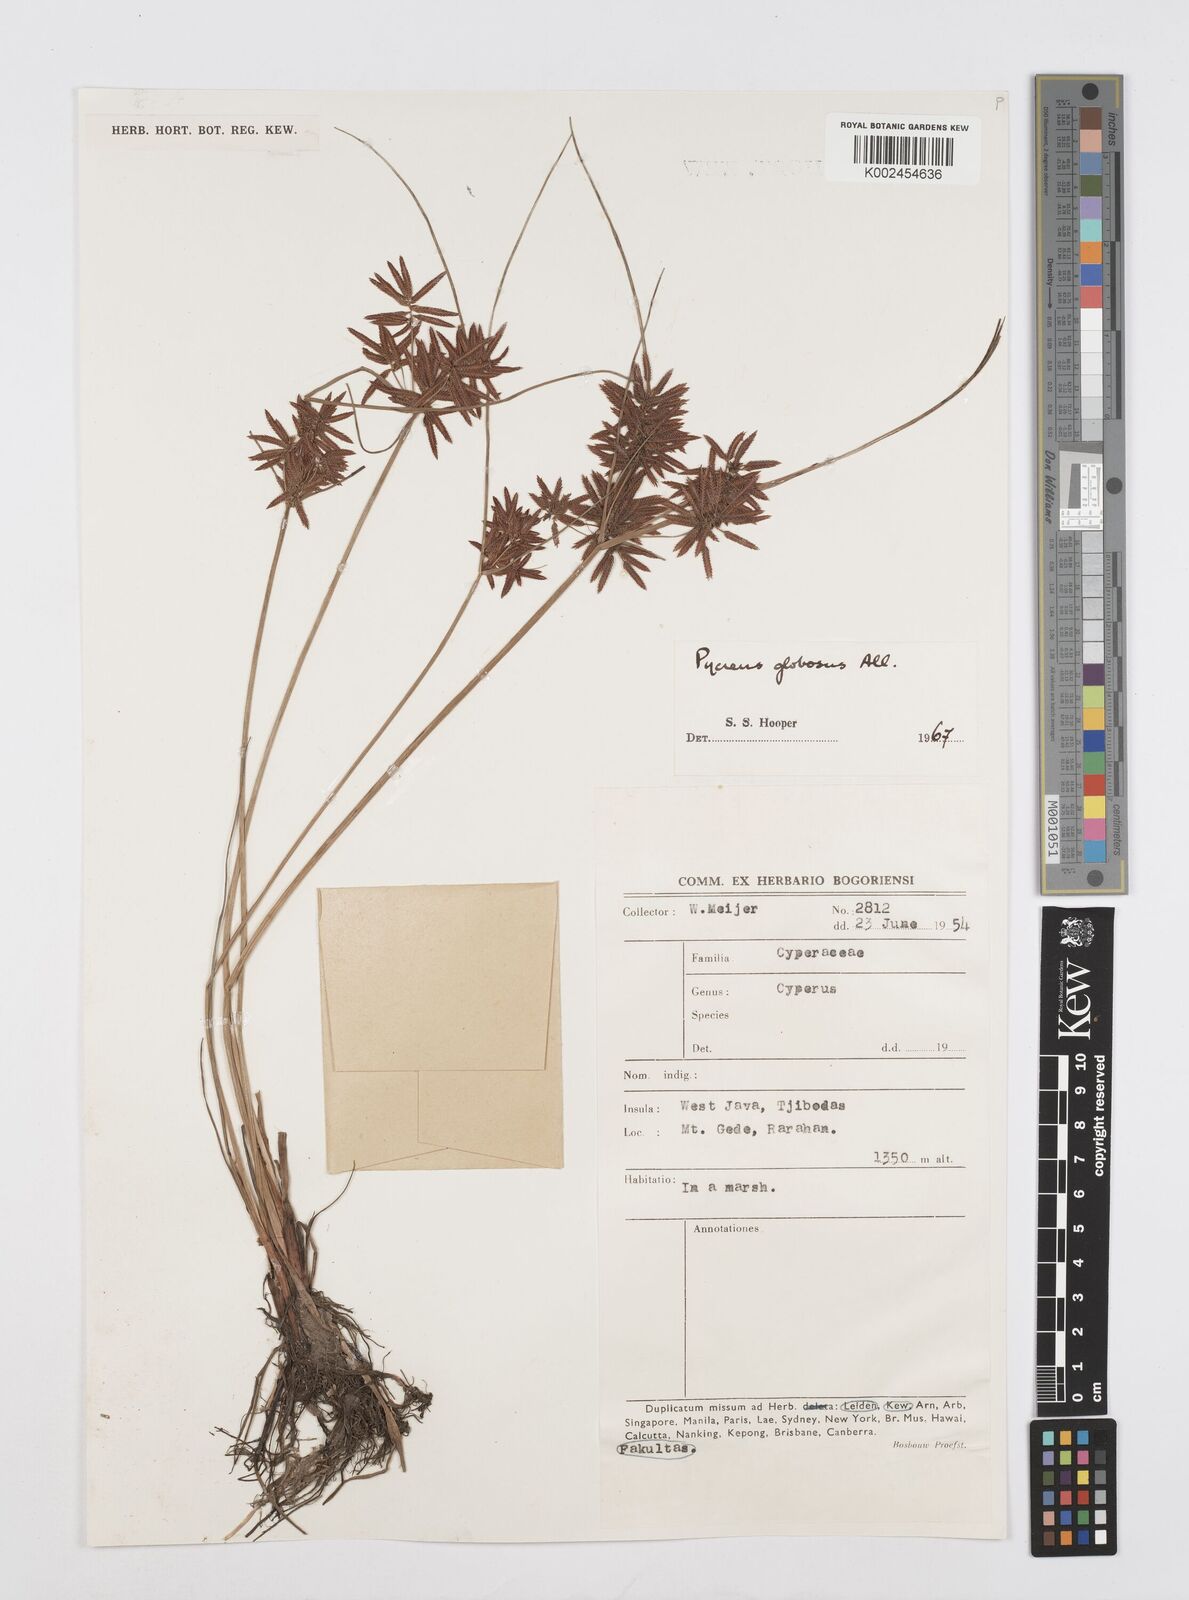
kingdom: Plantae
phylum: Tracheophyta
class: Liliopsida
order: Poales
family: Cyperaceae
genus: Cyperus
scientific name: Cyperus flavidus
